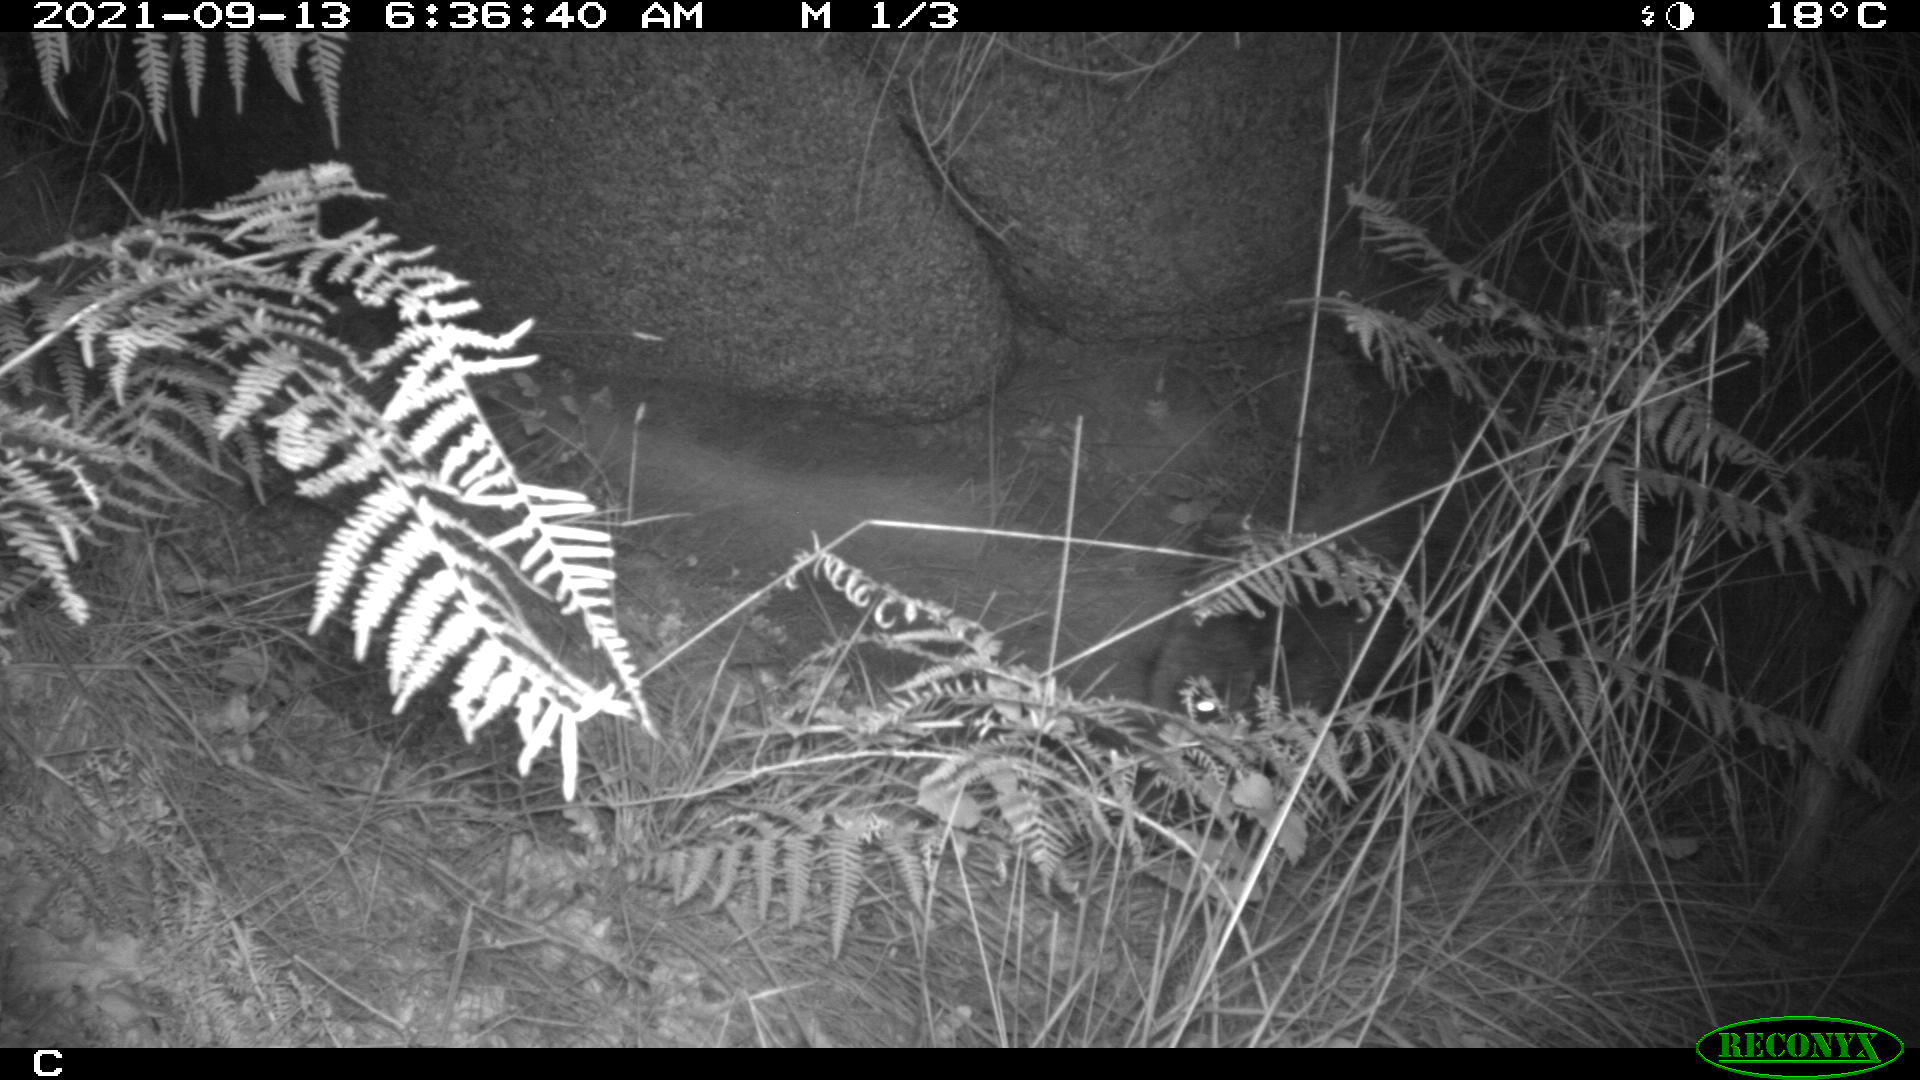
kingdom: Animalia
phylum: Chordata
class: Mammalia
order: Artiodactyla
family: Suidae
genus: Sus
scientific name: Sus scrofa
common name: Wild boar
